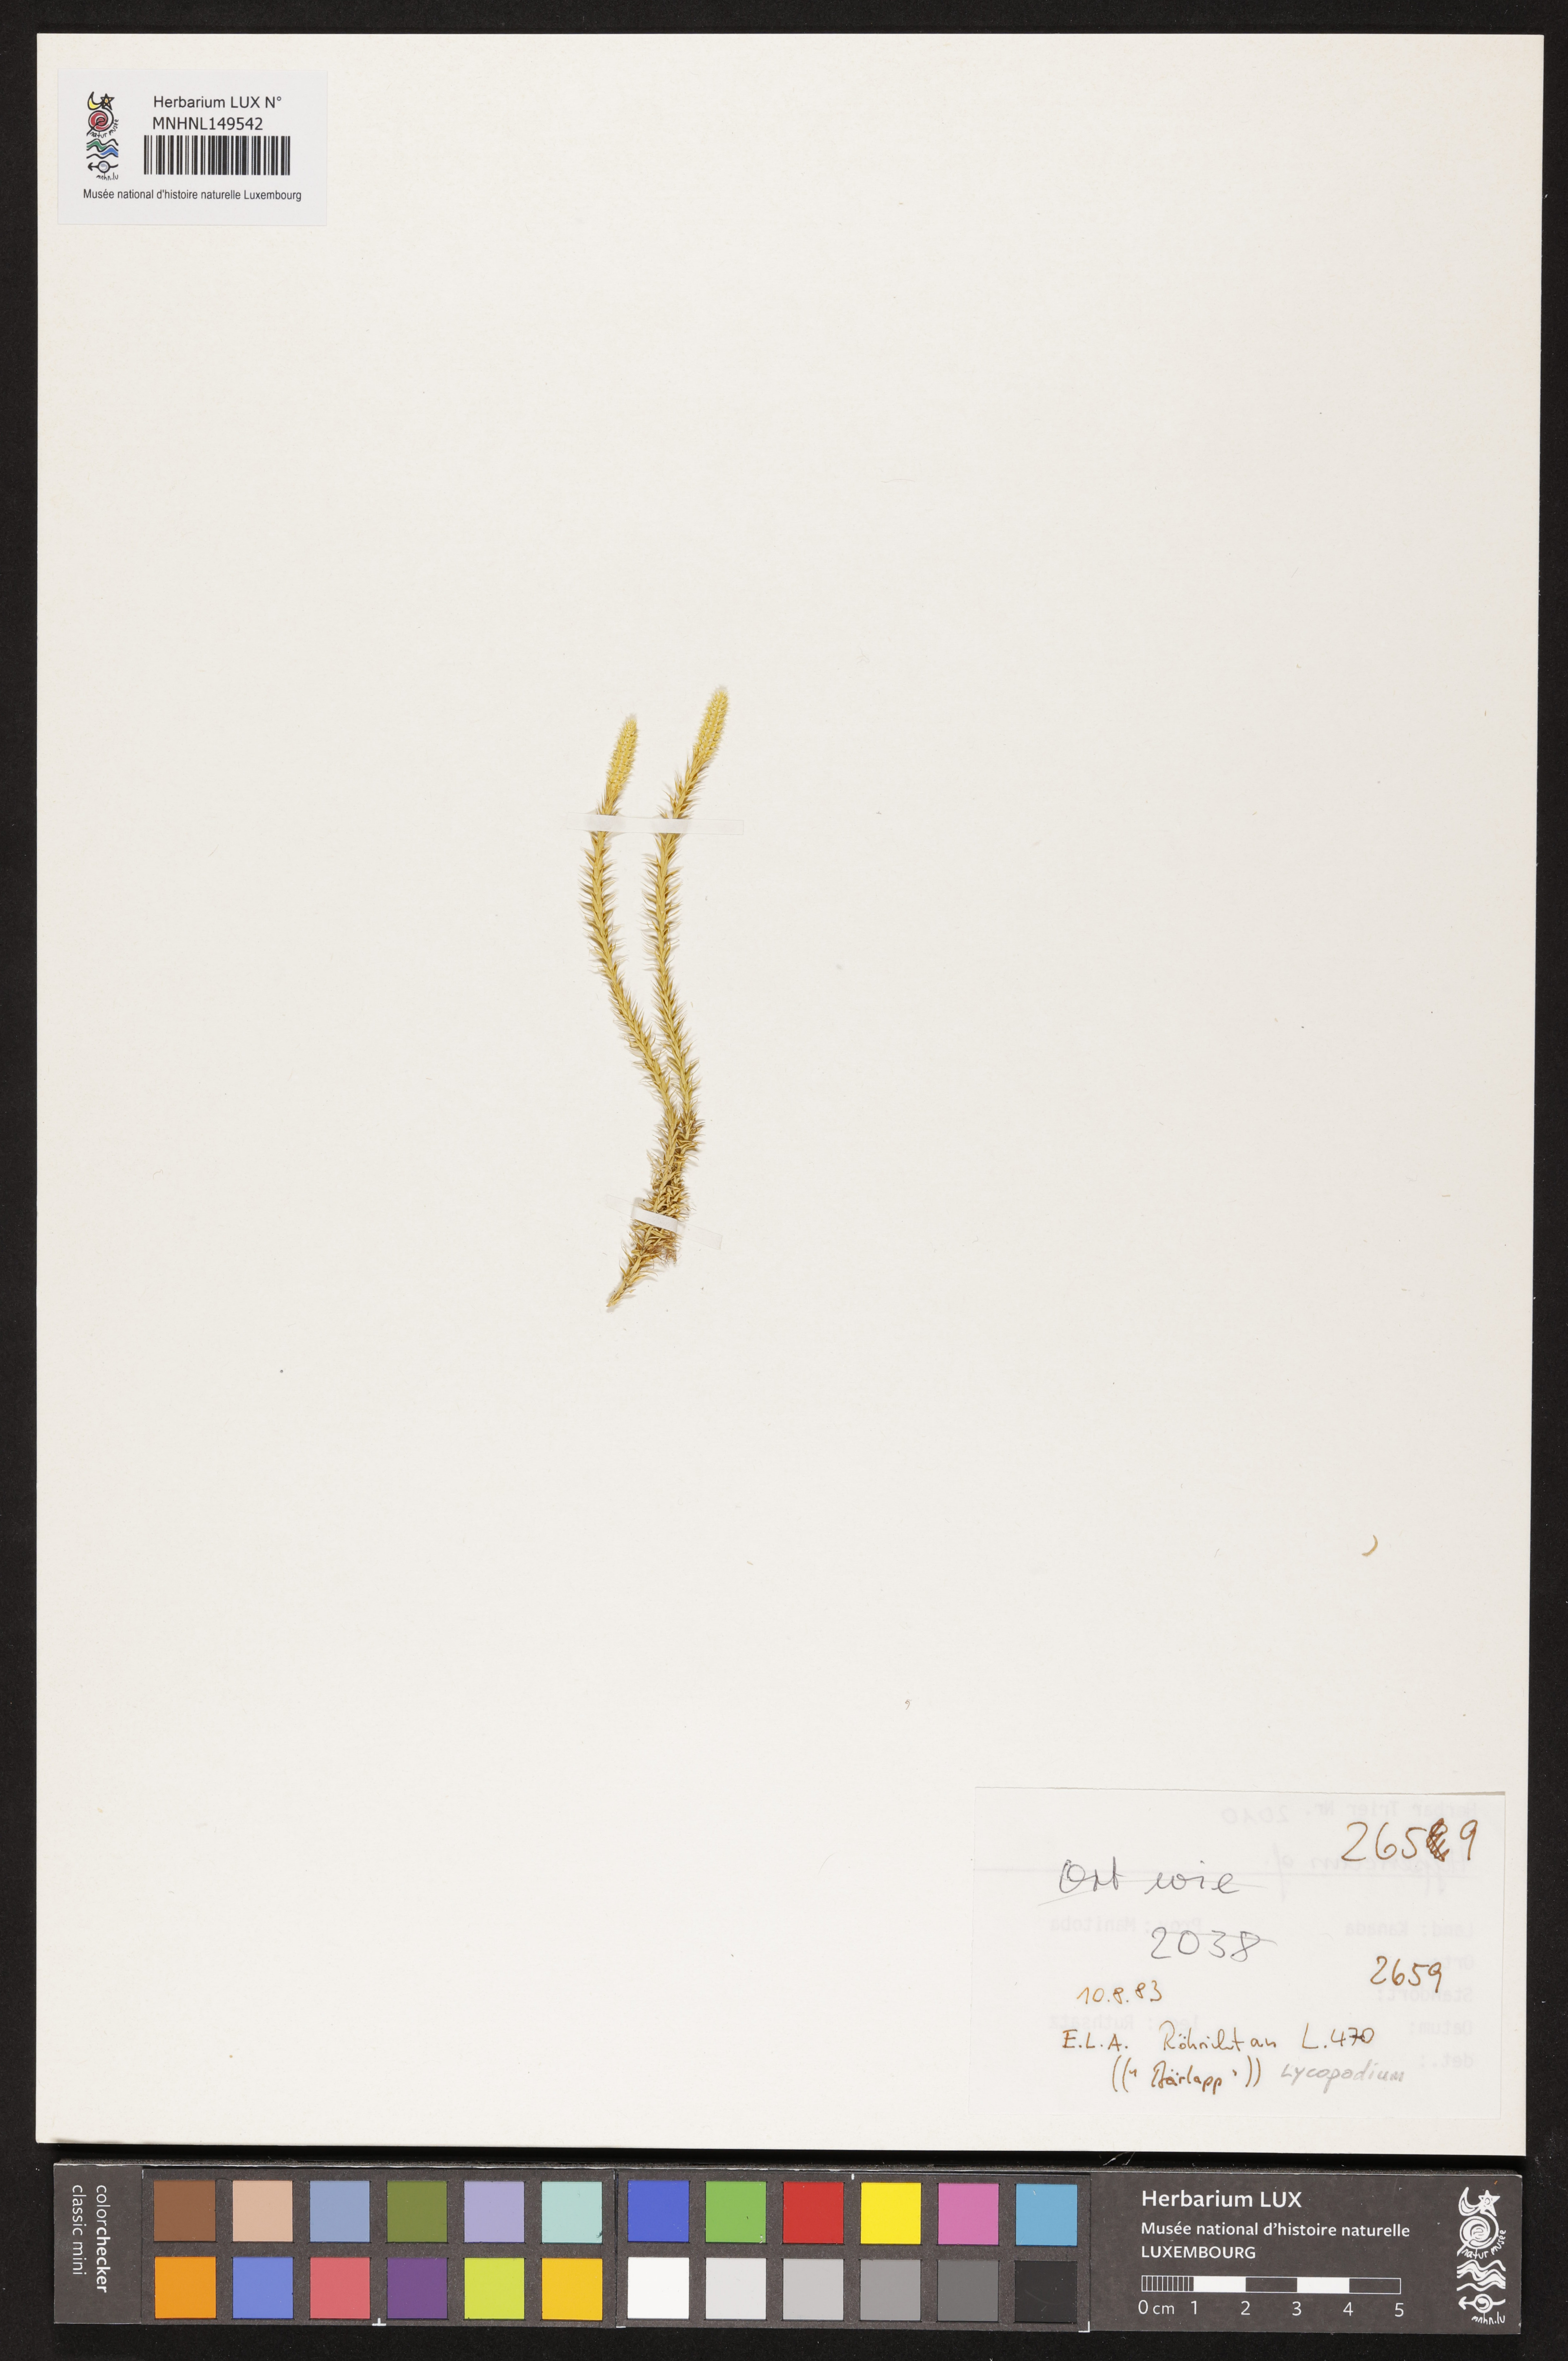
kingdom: Plantae
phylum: Tracheophyta
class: Lycopodiopsida
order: Lycopodiales
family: Lycopodiaceae
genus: Lycopodium
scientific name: Lycopodium
